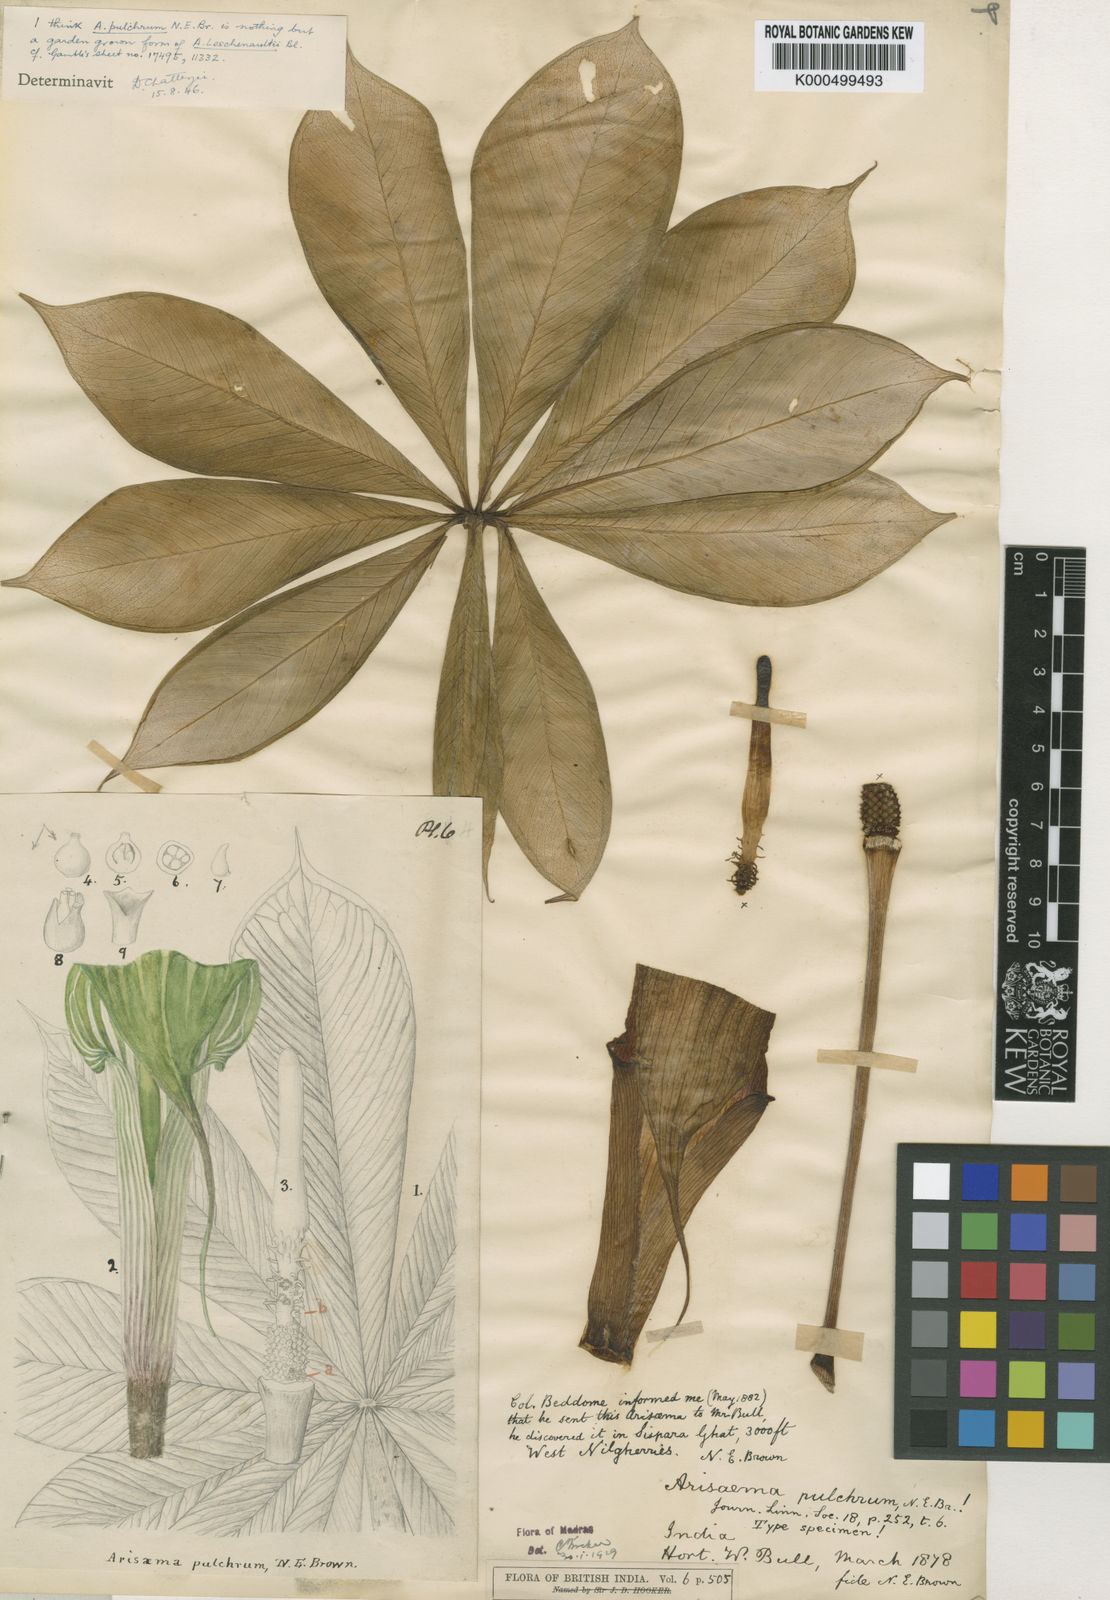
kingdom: Plantae
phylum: Tracheophyta
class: Liliopsida
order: Alismatales
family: Araceae
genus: Arisaema
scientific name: Arisaema leschenaultii
